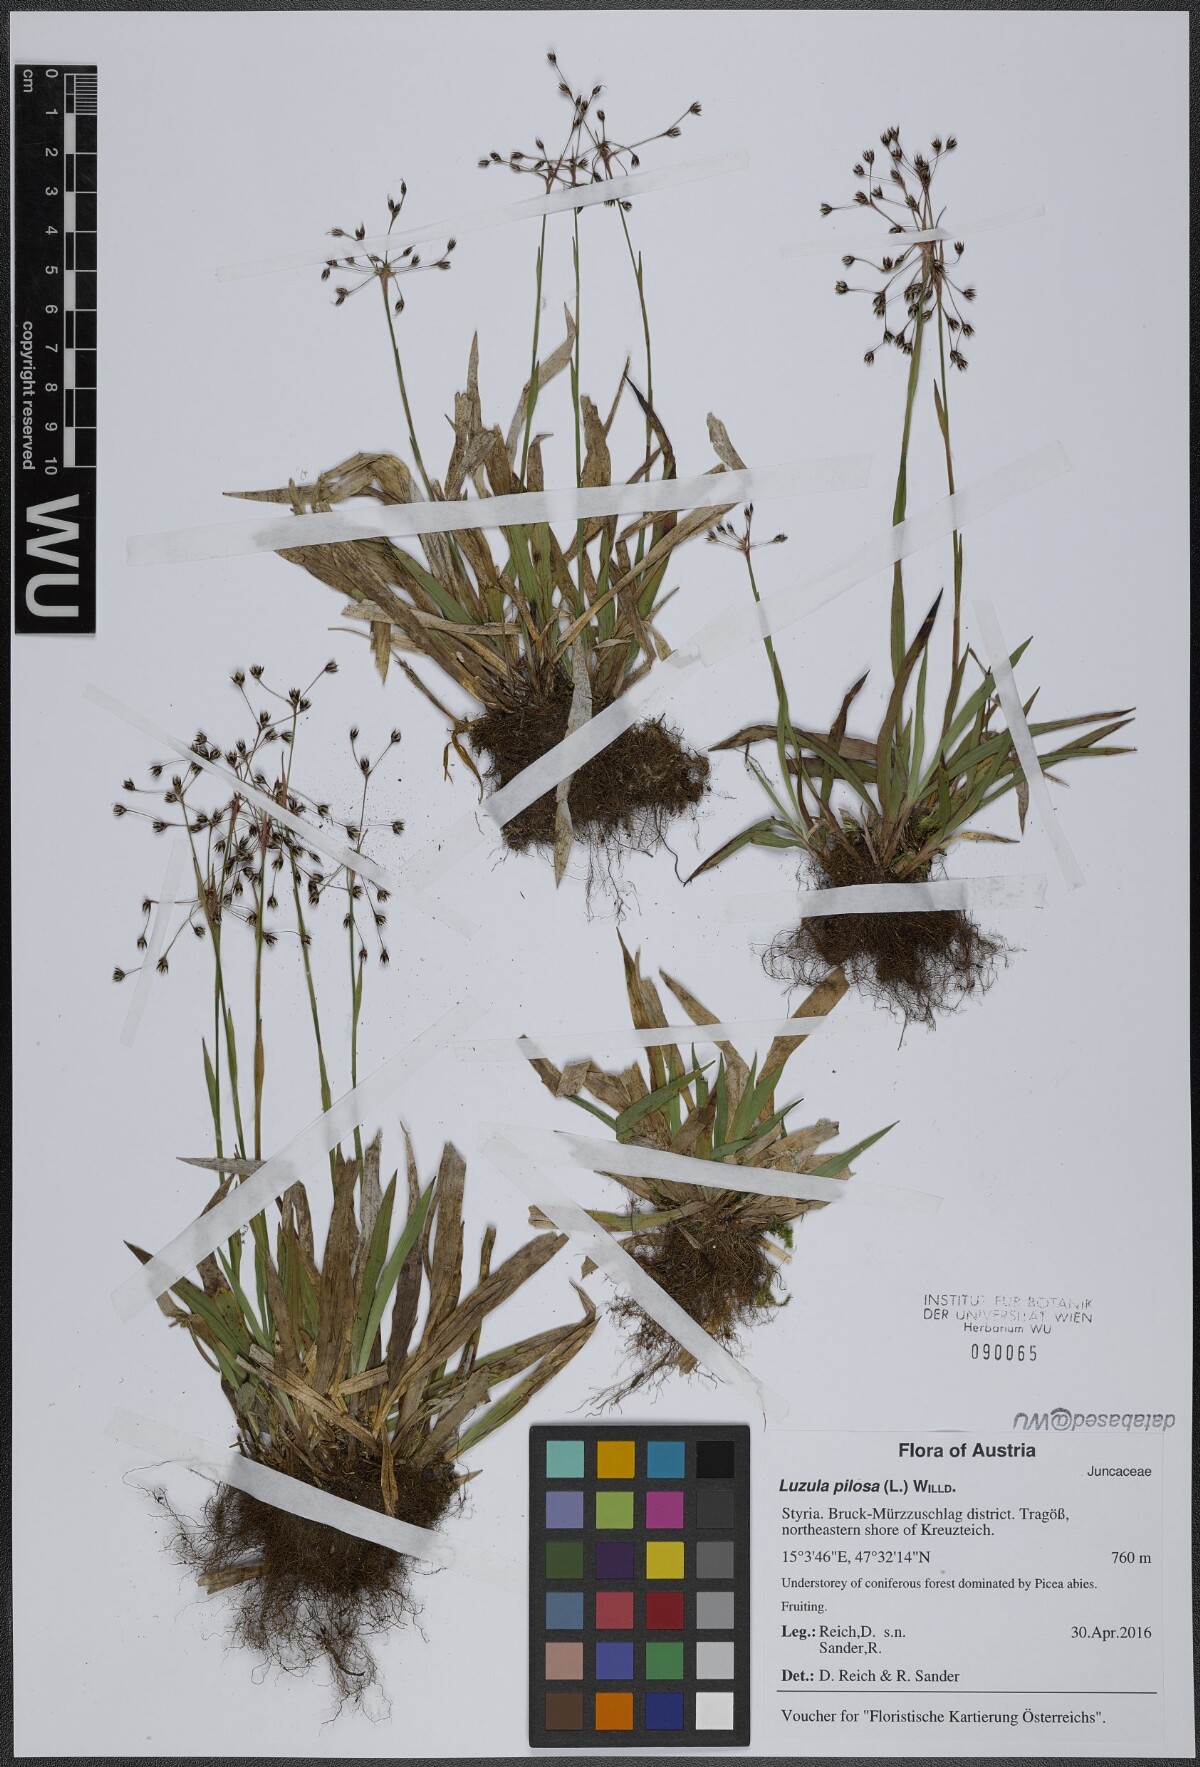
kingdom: Plantae
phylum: Tracheophyta
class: Liliopsida
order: Poales
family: Juncaceae
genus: Luzula
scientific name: Luzula pilosa
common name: Hairy wood-rush
